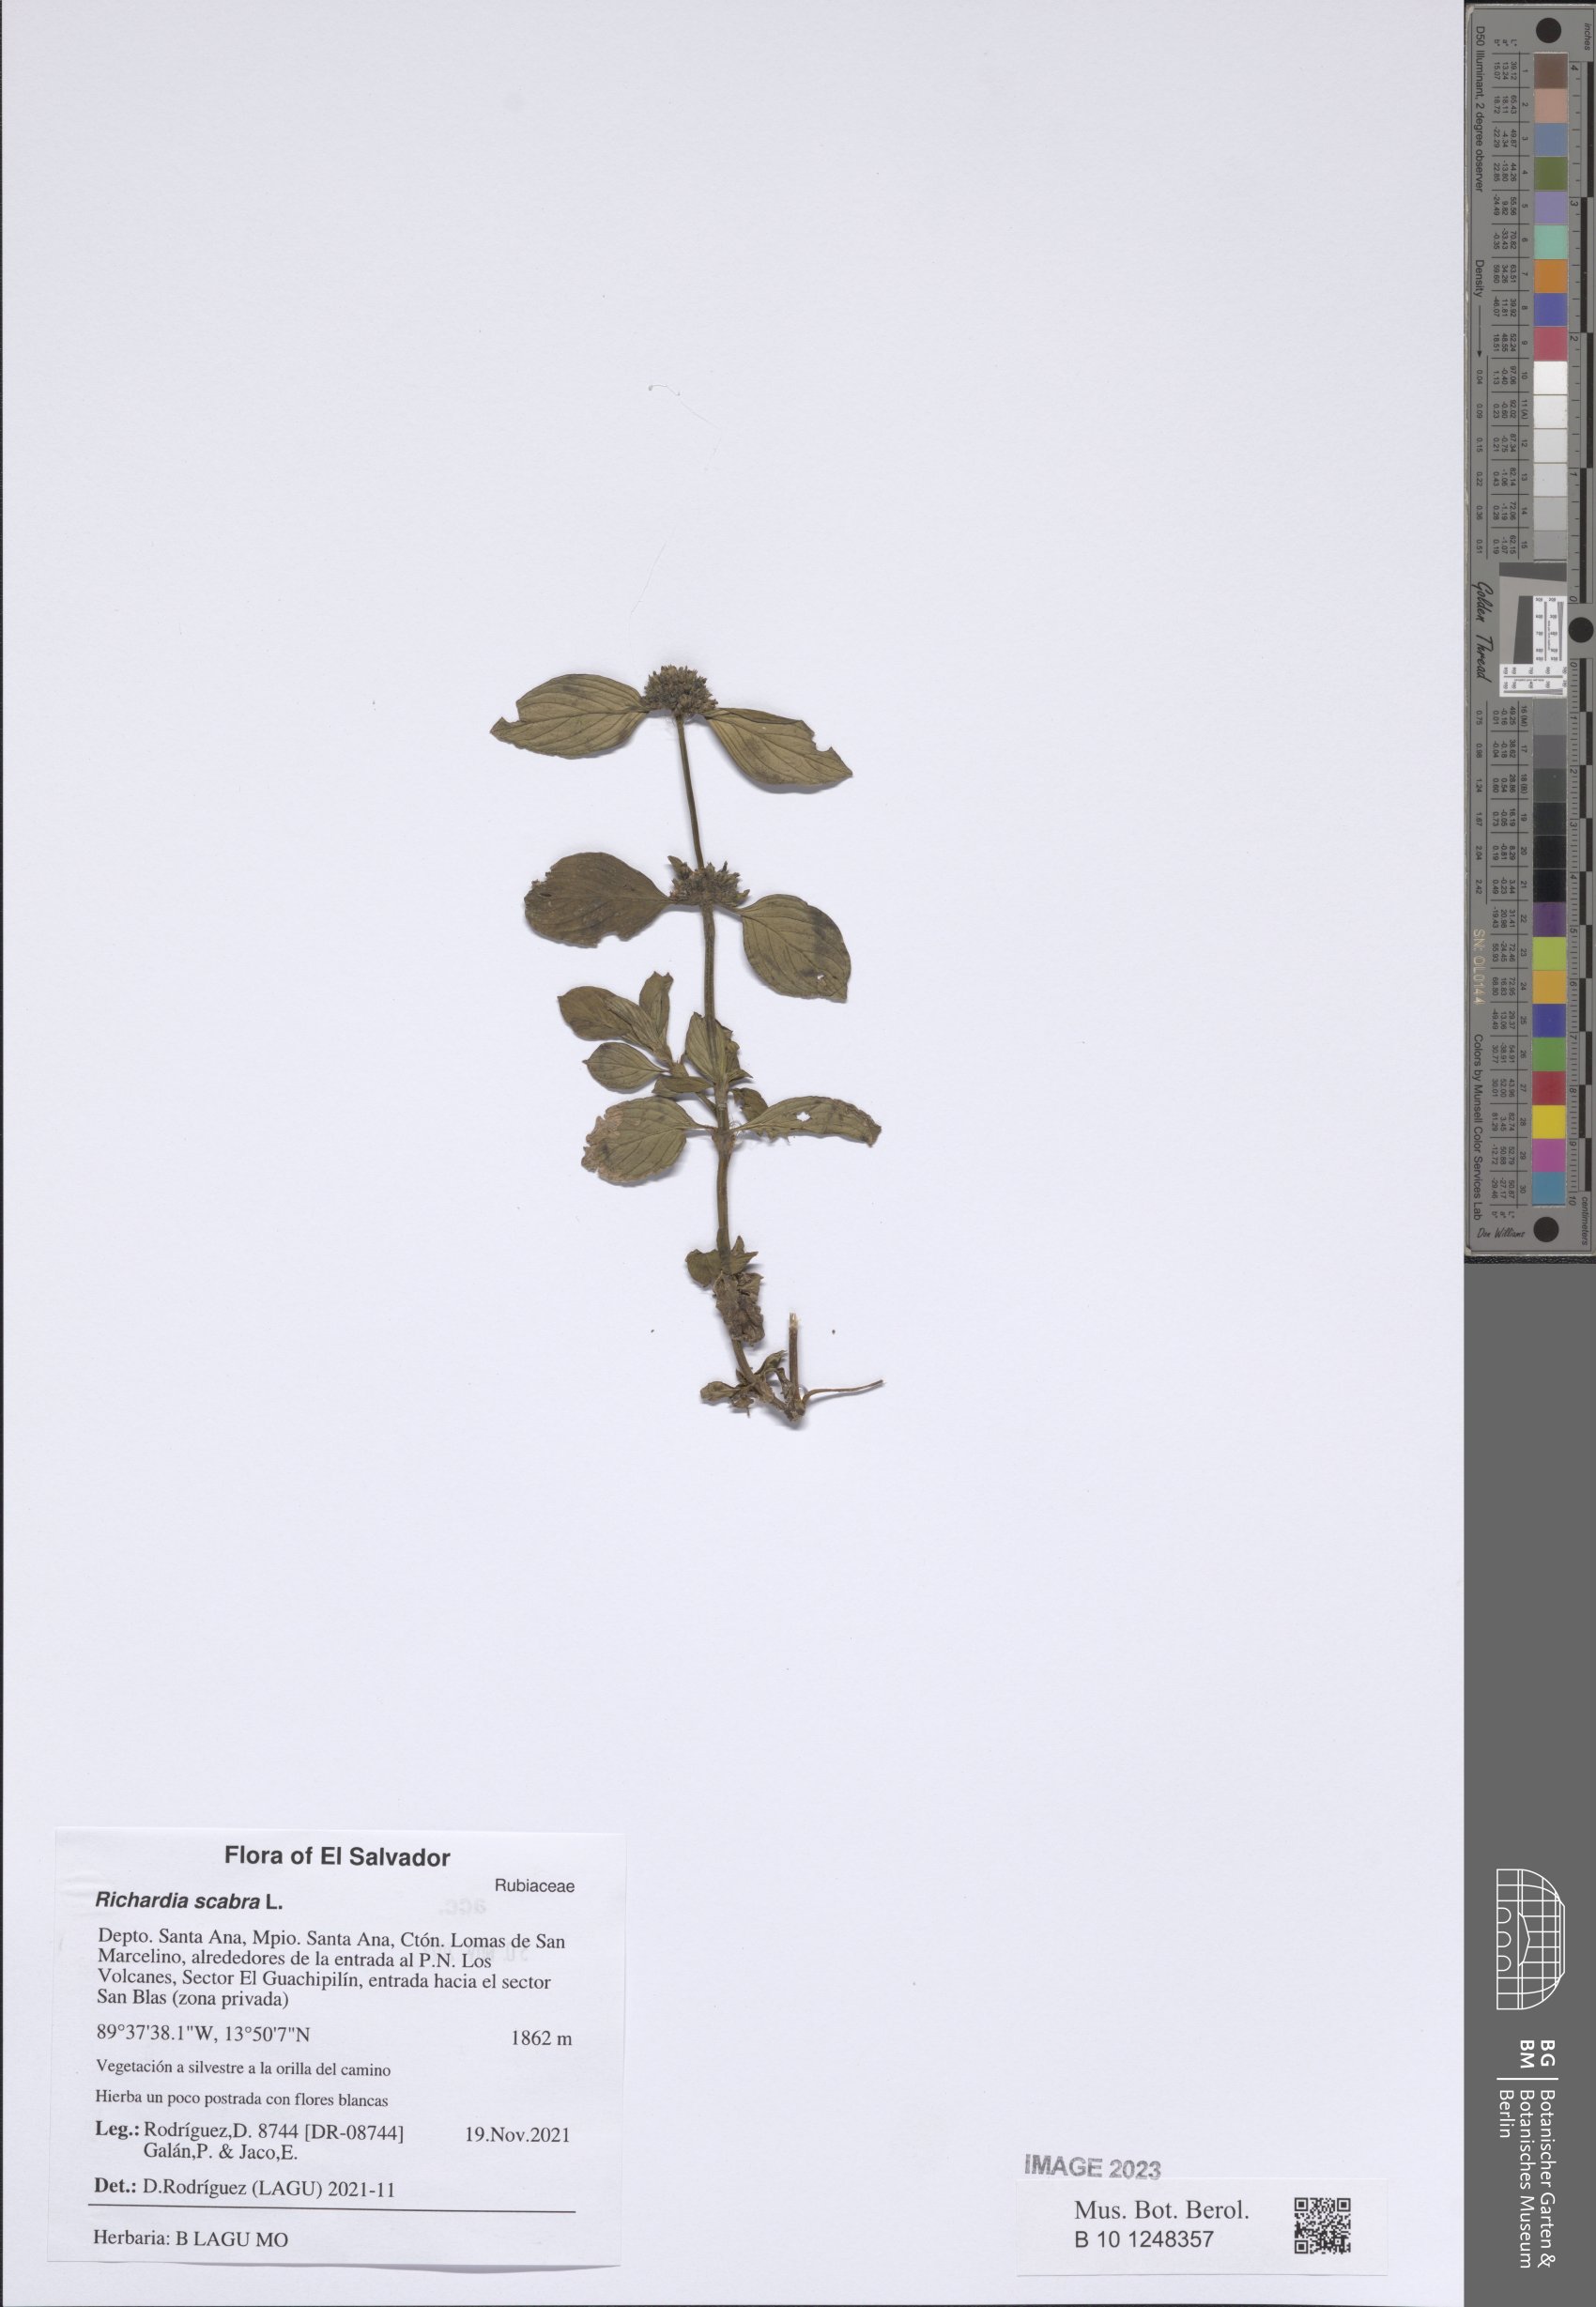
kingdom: Plantae
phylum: Tracheophyta
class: Magnoliopsida
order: Gentianales
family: Rubiaceae
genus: Richardia
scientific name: Richardia scabra
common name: Rough mexican clover
